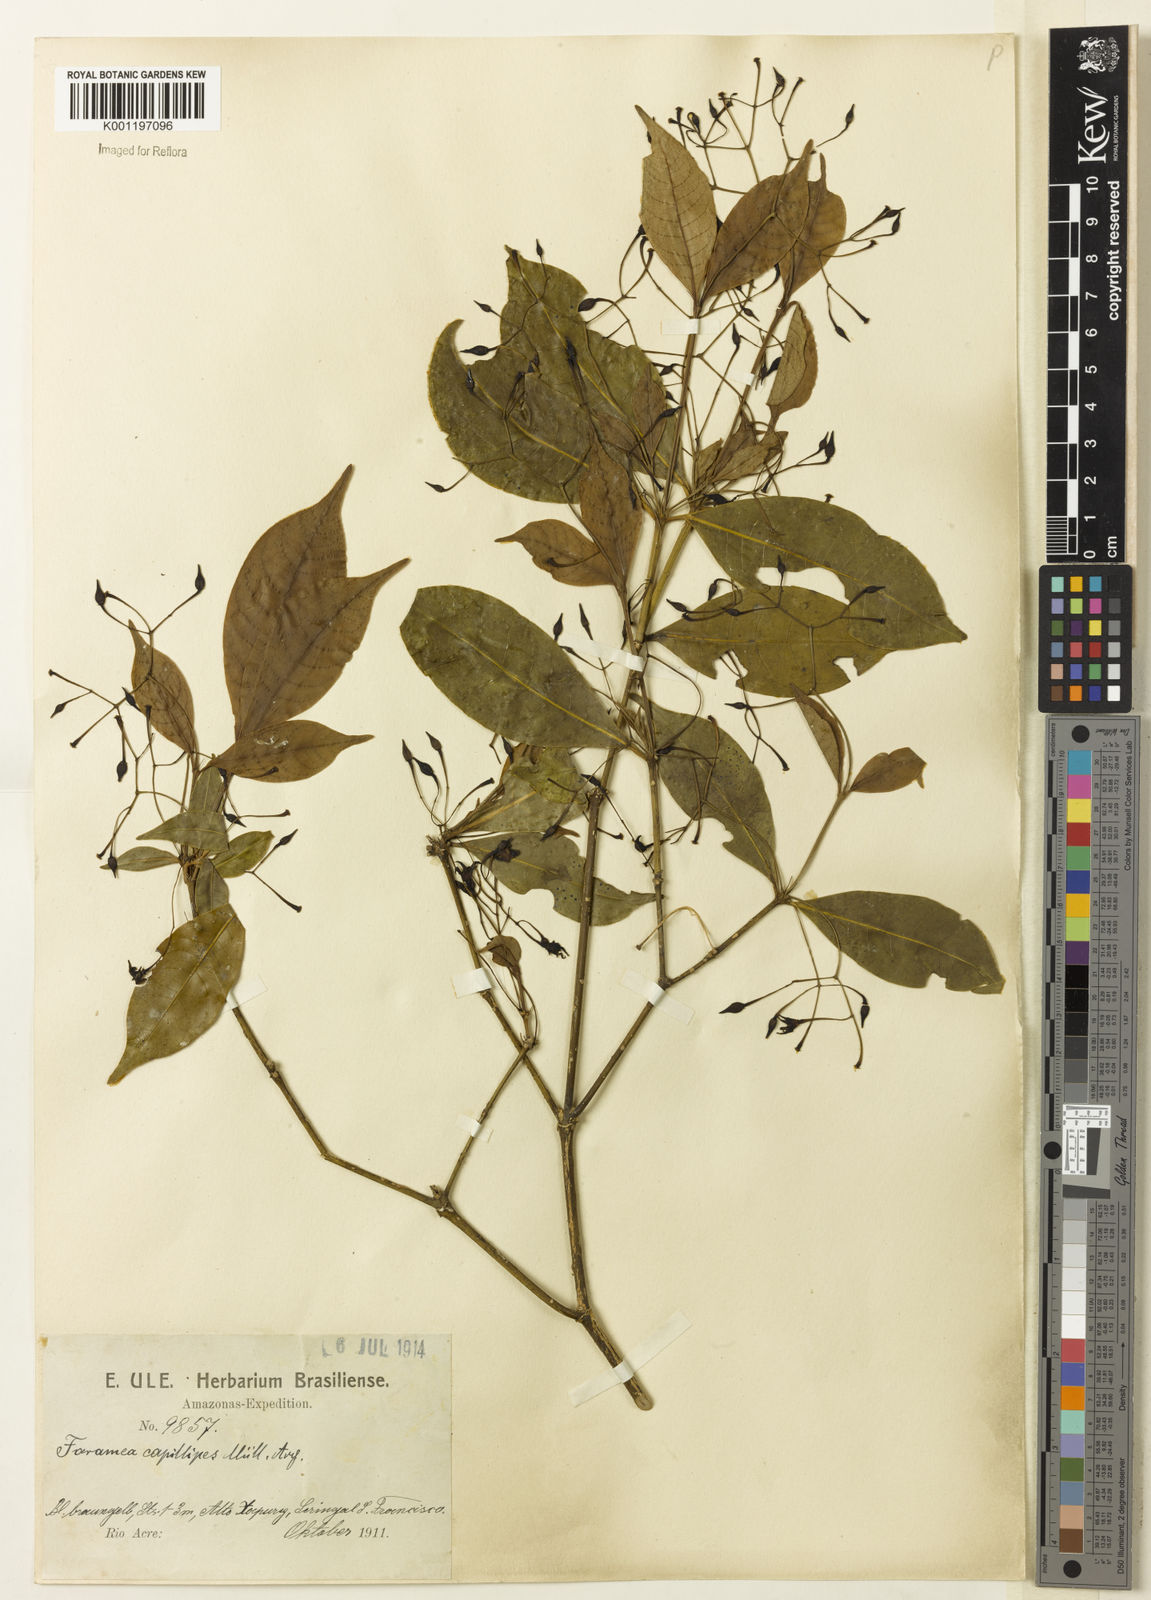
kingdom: Plantae
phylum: Tracheophyta
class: Magnoliopsida
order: Gentianales
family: Rubiaceae
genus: Faramea
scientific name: Faramea
